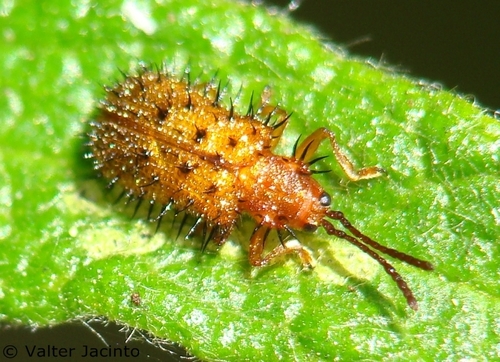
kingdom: Animalia
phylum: Arthropoda
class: Insecta
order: Coleoptera
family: Chrysomelidae
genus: Dicladispa
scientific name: Dicladispa testacea
